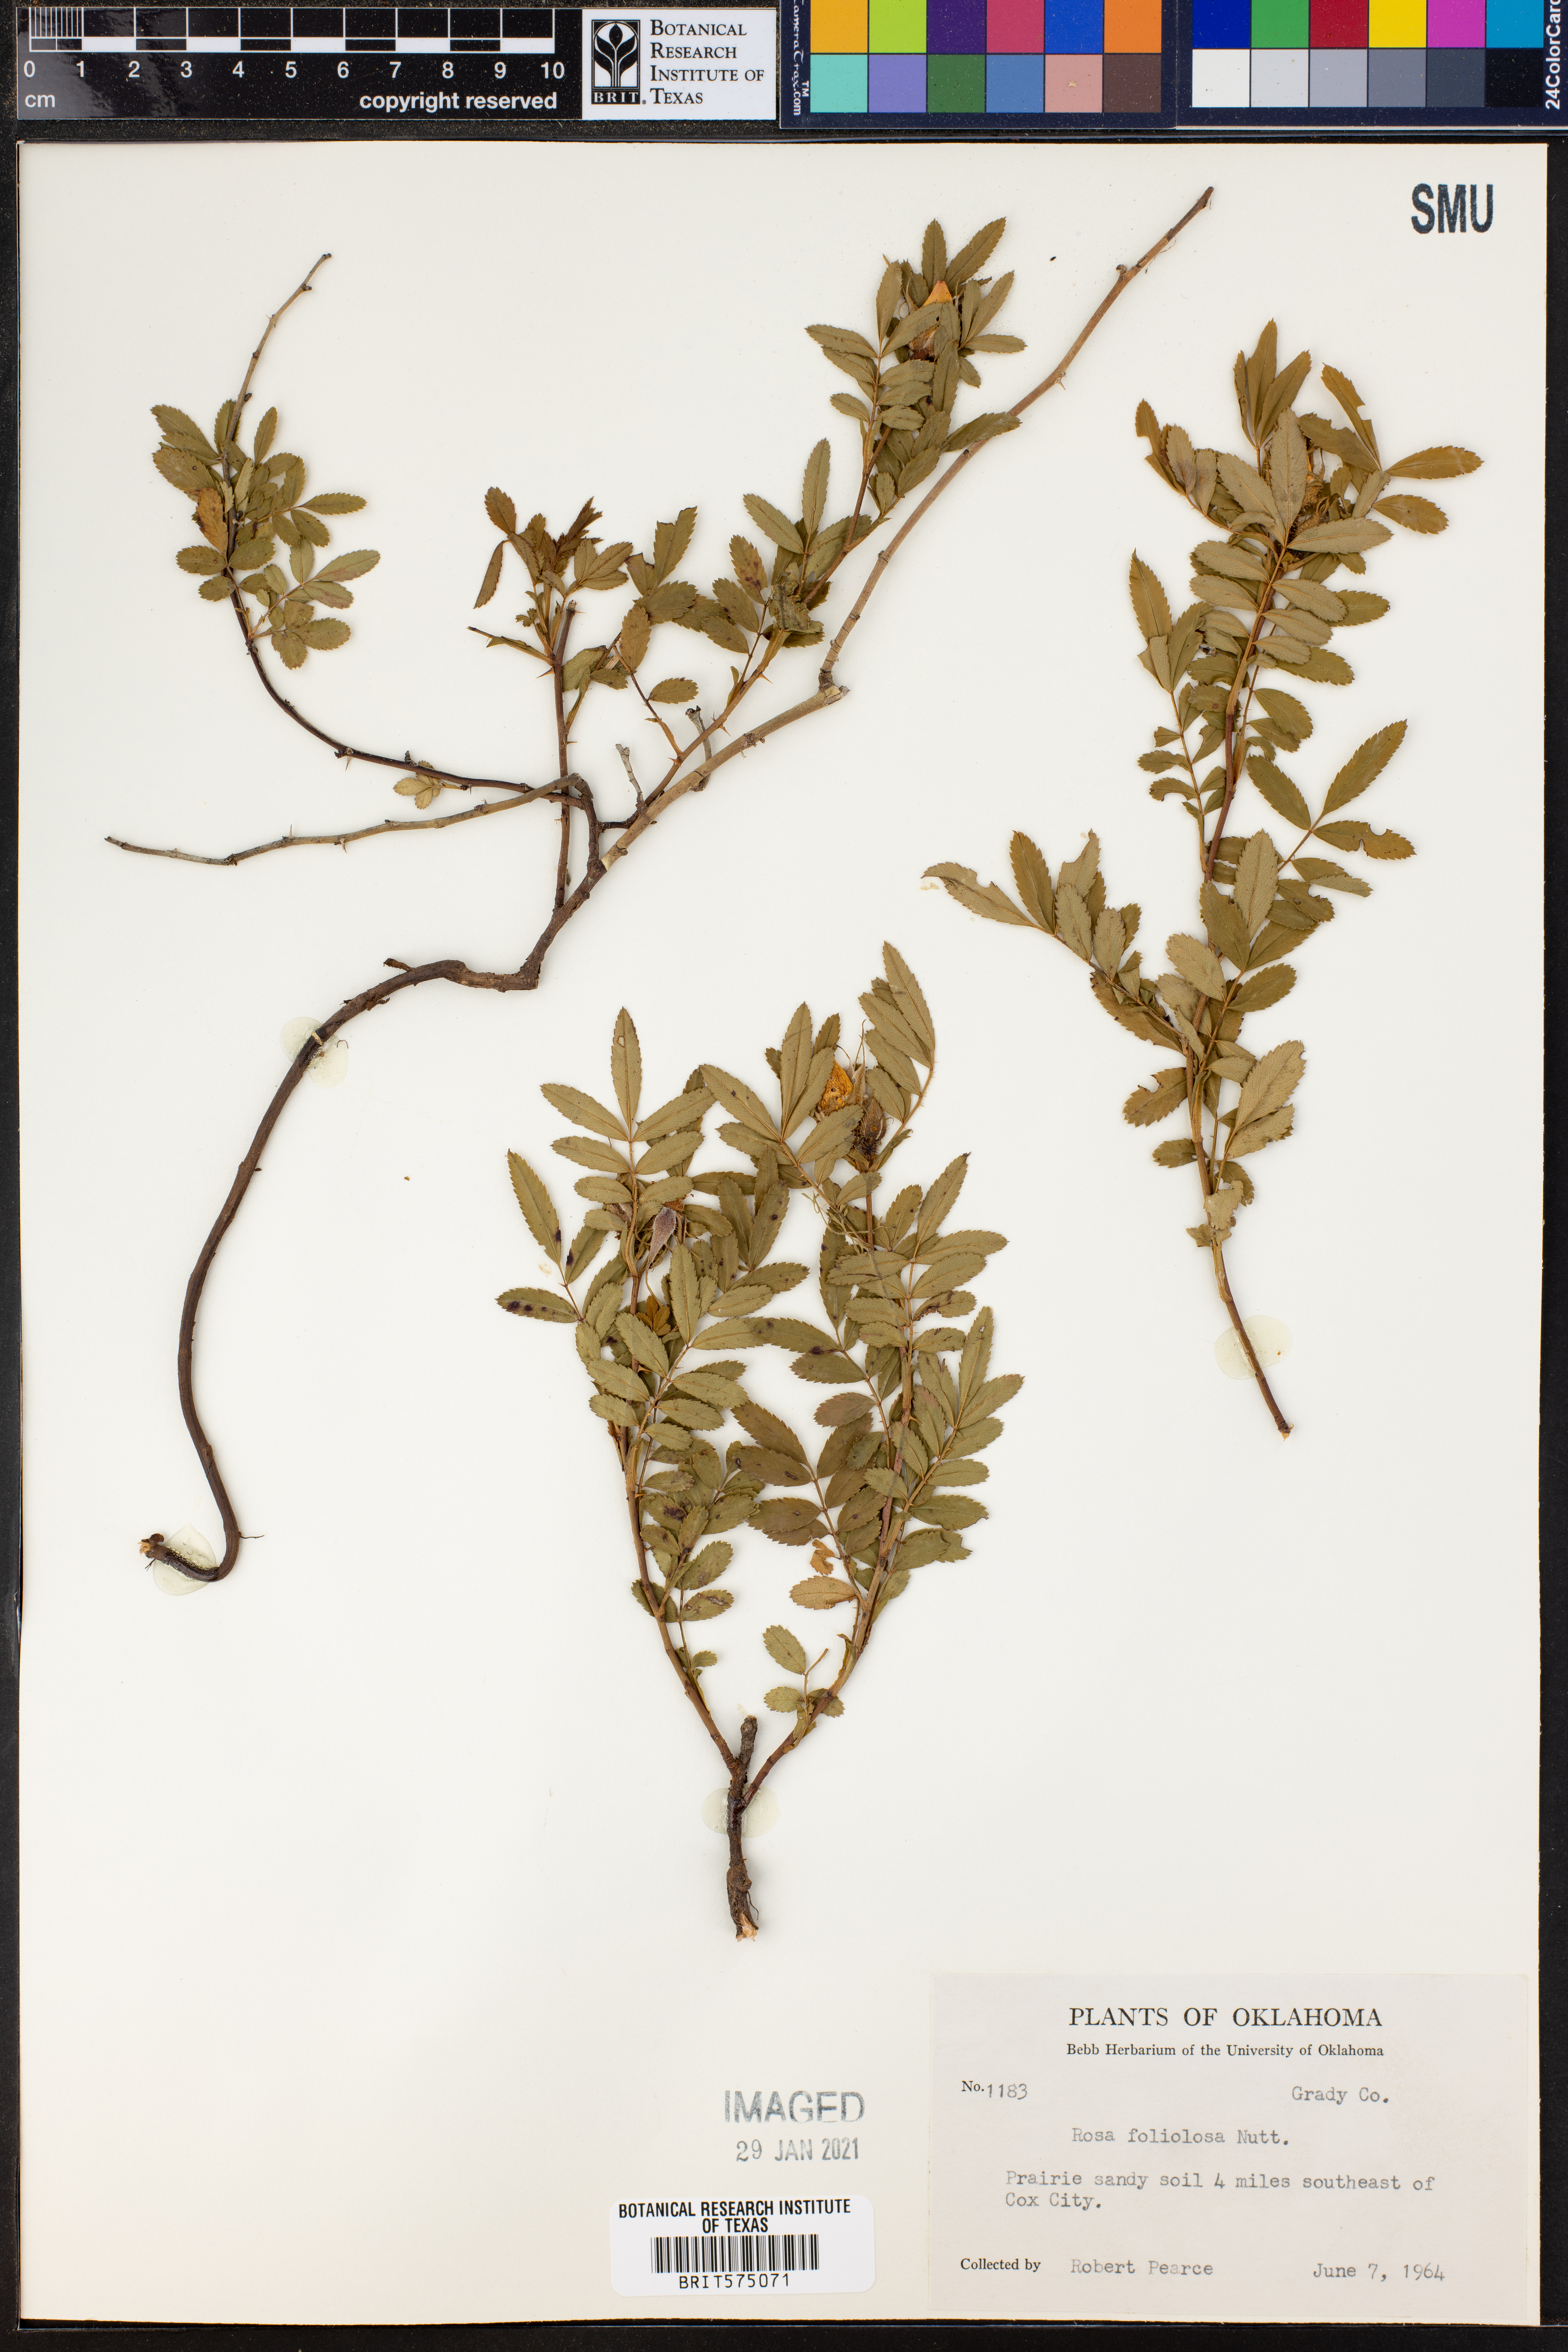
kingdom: Plantae
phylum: Tracheophyta
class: Magnoliopsida
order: Rosales
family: Rosaceae
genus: Rosa
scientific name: Rosa foliolosa
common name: White prairie rose
